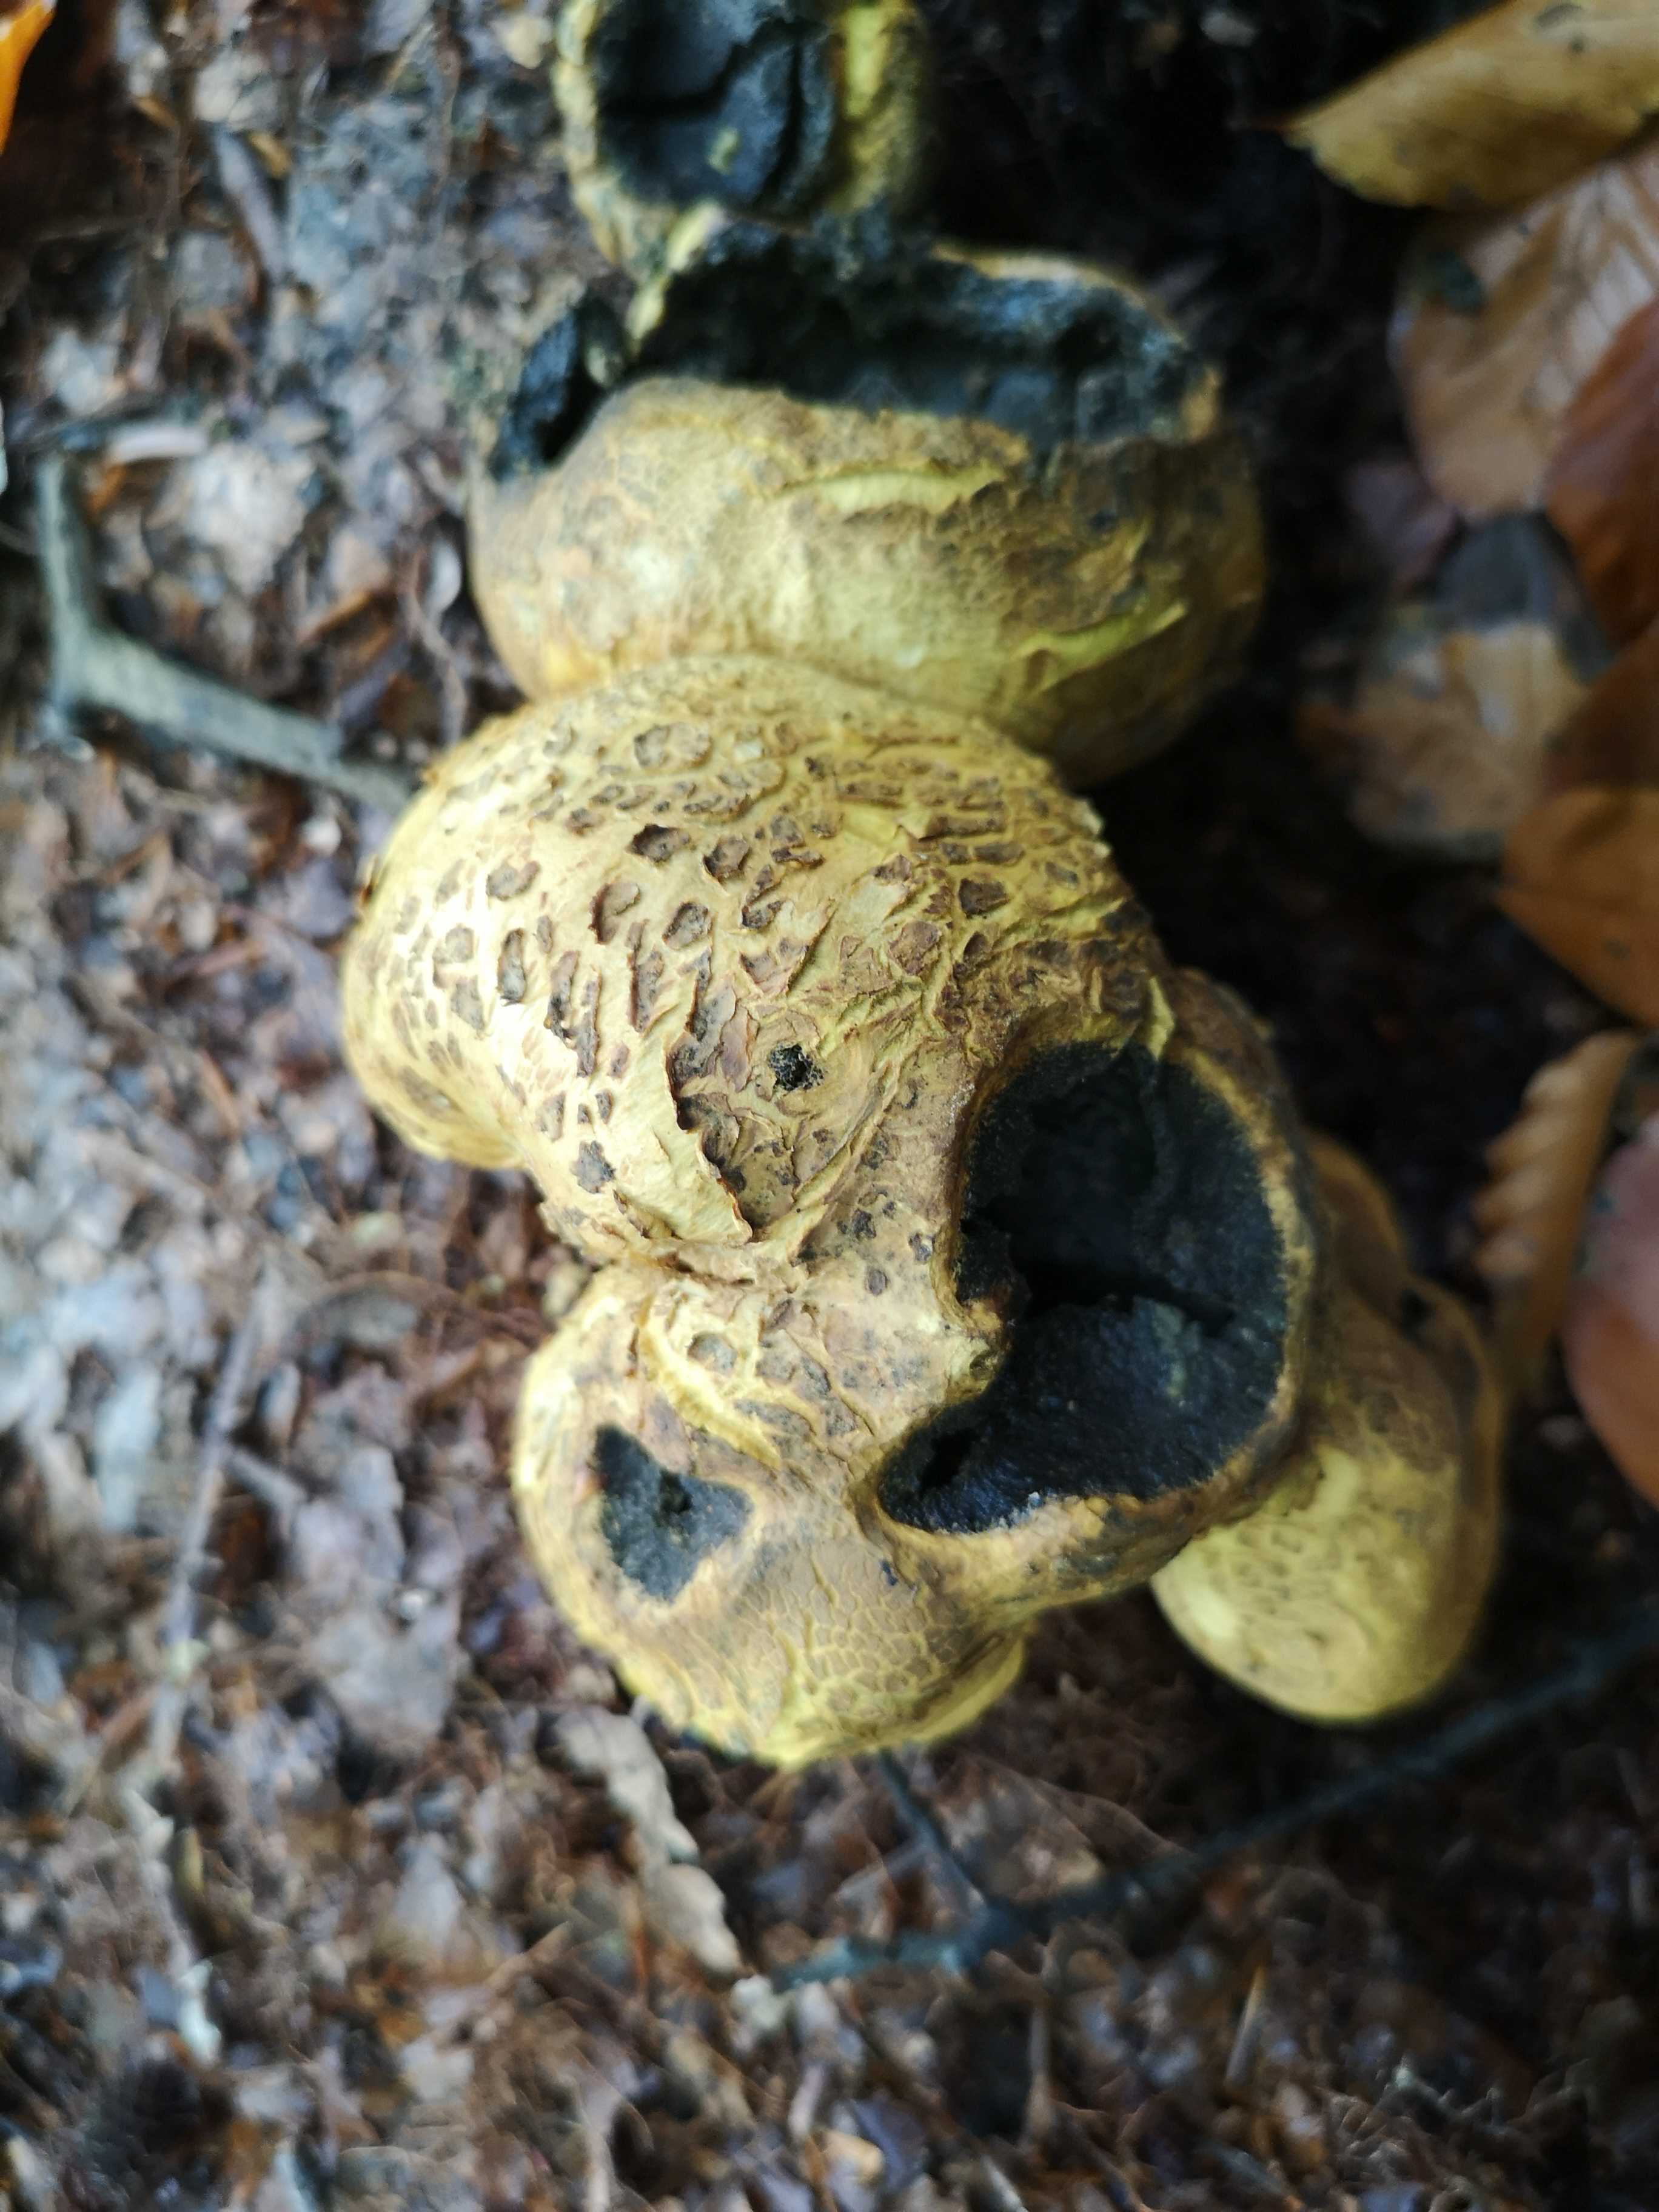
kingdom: Fungi
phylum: Basidiomycota
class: Agaricomycetes
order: Boletales
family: Sclerodermataceae
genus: Scleroderma
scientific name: Scleroderma citrinum
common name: almindelig bruskbold
